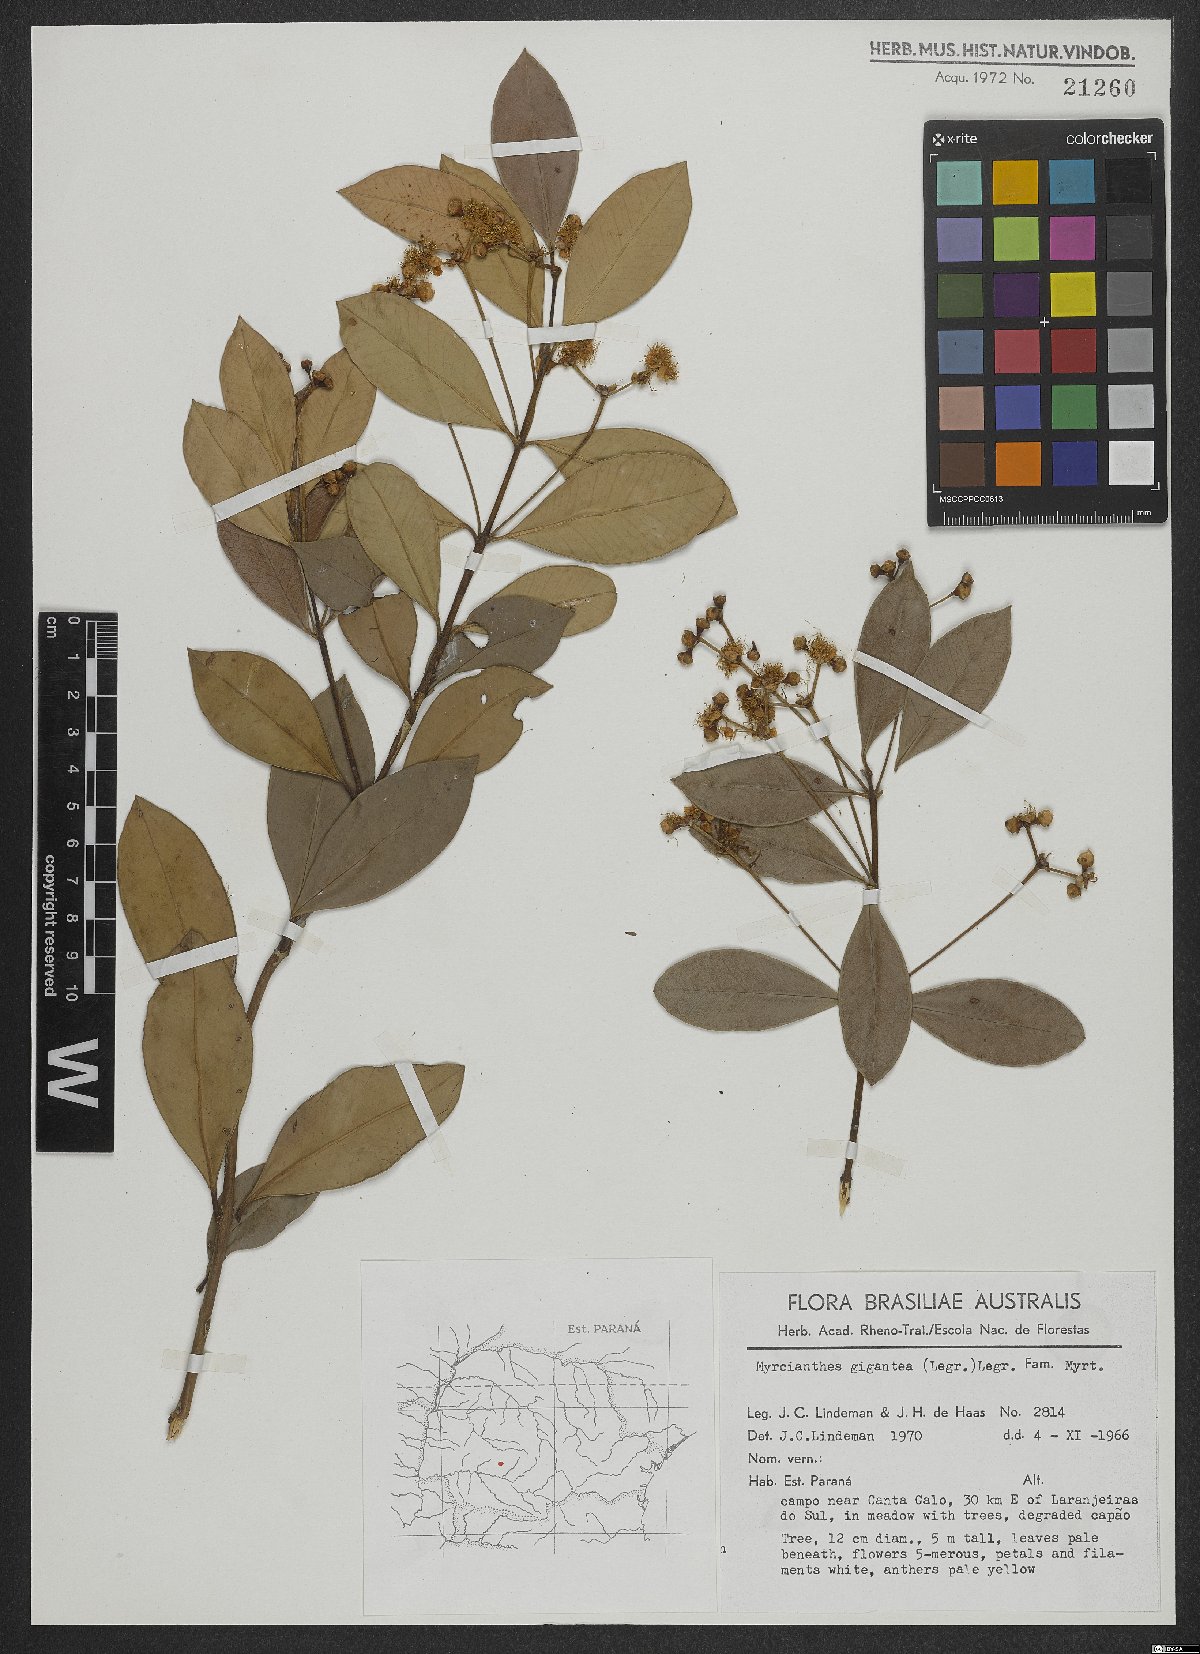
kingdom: Plantae
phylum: Tracheophyta
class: Magnoliopsida
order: Myrtales
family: Myrtaceae
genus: Myrcianthes
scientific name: Myrcianthes gigantea
